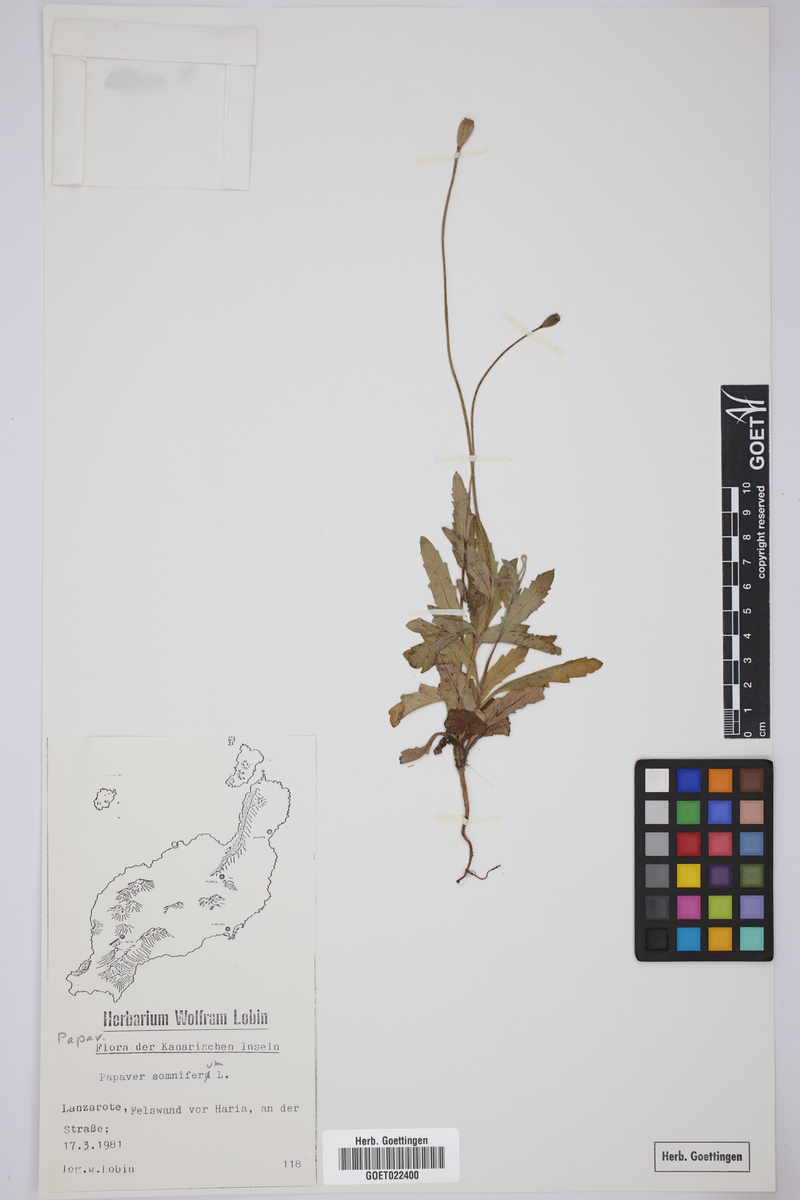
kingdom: Plantae
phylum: Tracheophyta
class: Magnoliopsida
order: Ranunculales
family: Papaveraceae
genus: Papaver
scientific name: Papaver somniferum
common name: Opium poppy
